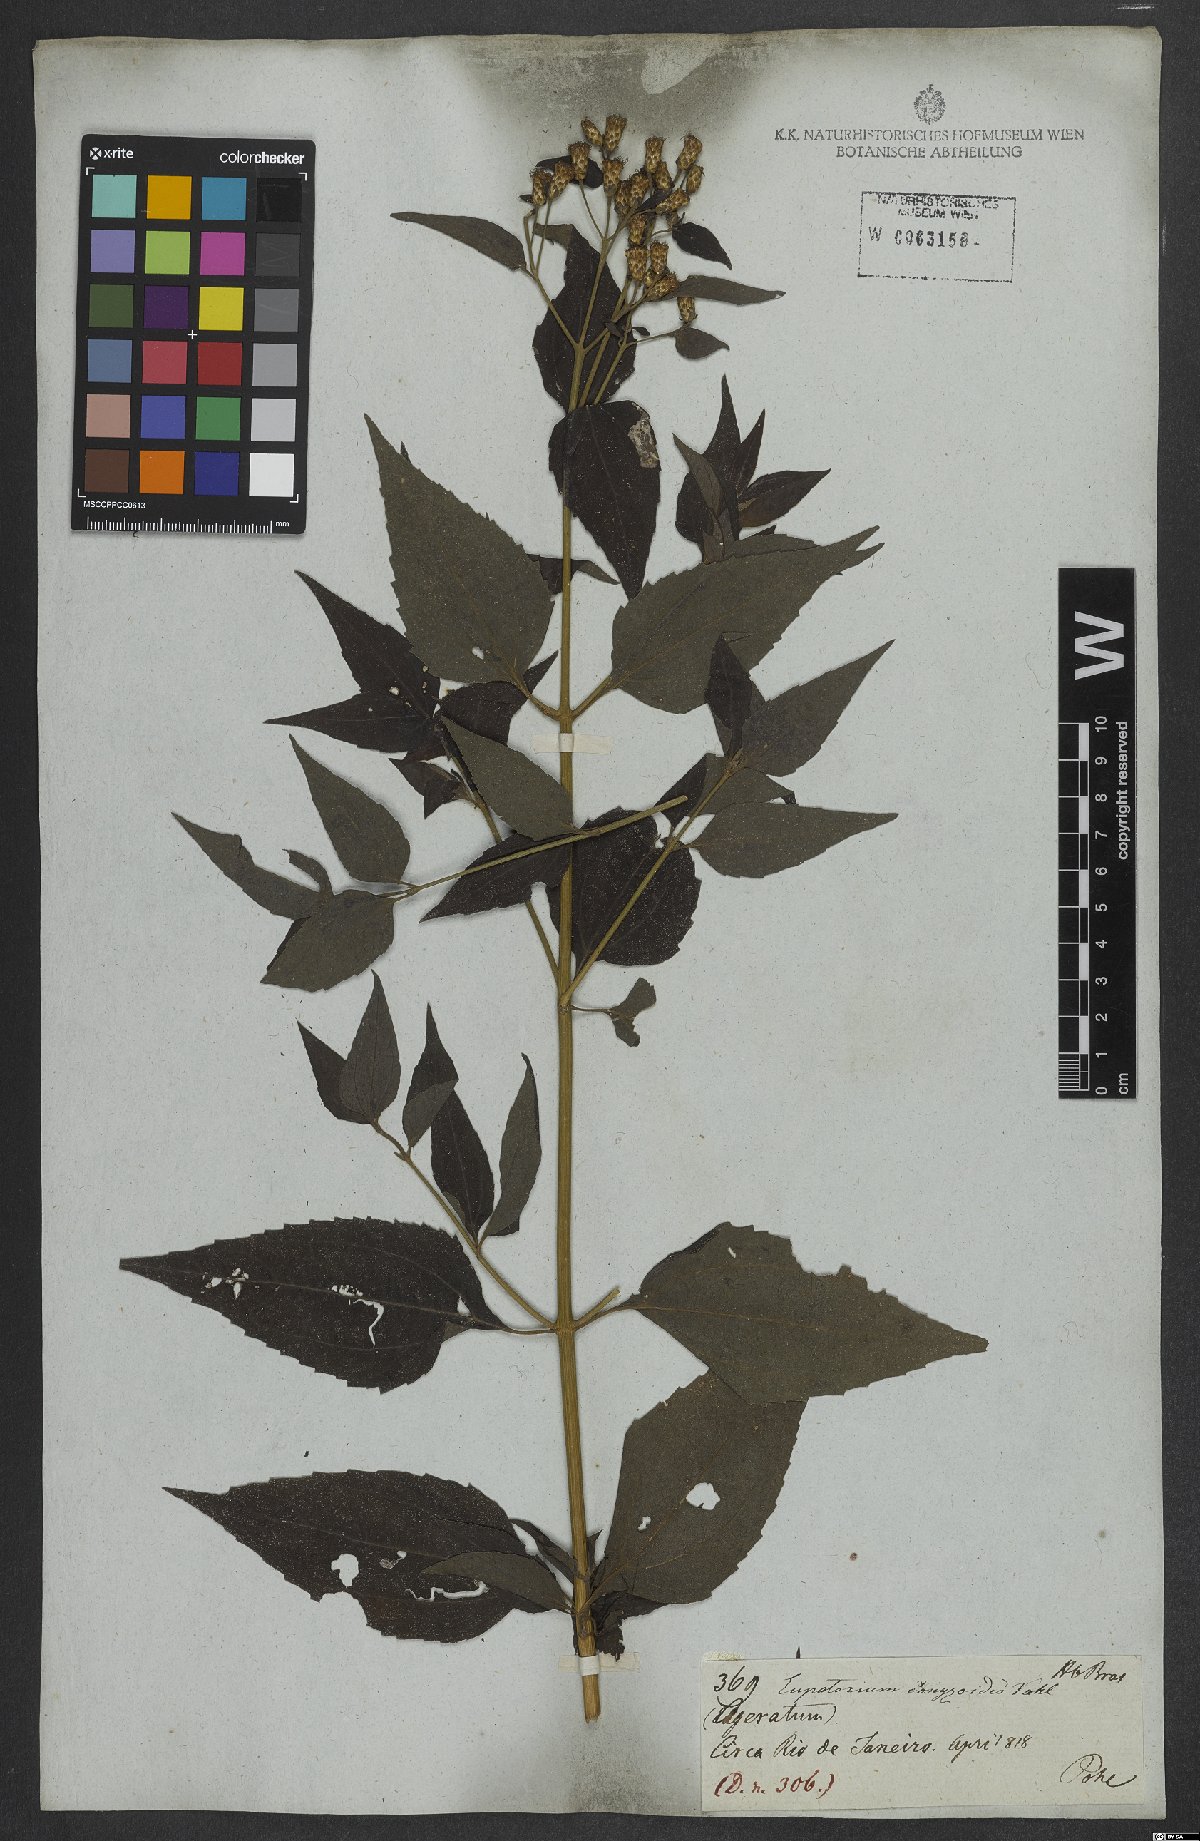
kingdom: Plantae
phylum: Tracheophyta
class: Magnoliopsida
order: Asterales
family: Asteraceae
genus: Chromolaena
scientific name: Chromolaena odorata
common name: Siamweed
